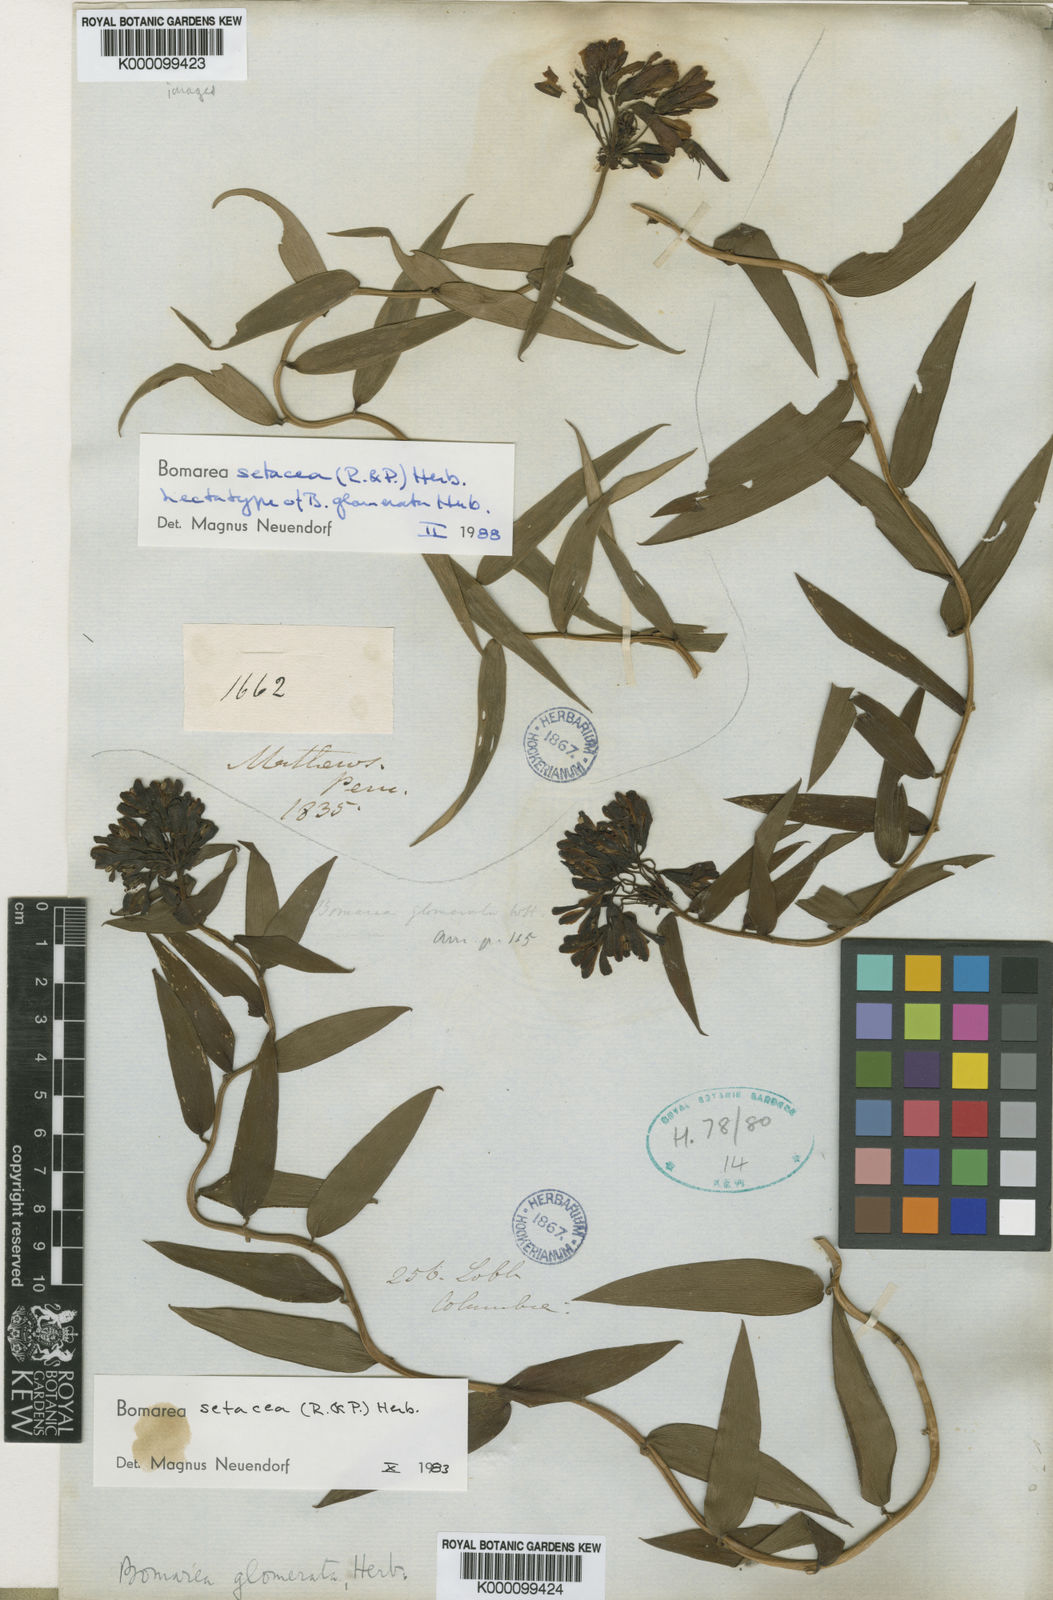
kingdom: Plantae
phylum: Tracheophyta
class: Liliopsida
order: Liliales
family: Alstroemeriaceae
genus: Bomarea
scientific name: Bomarea setacea
